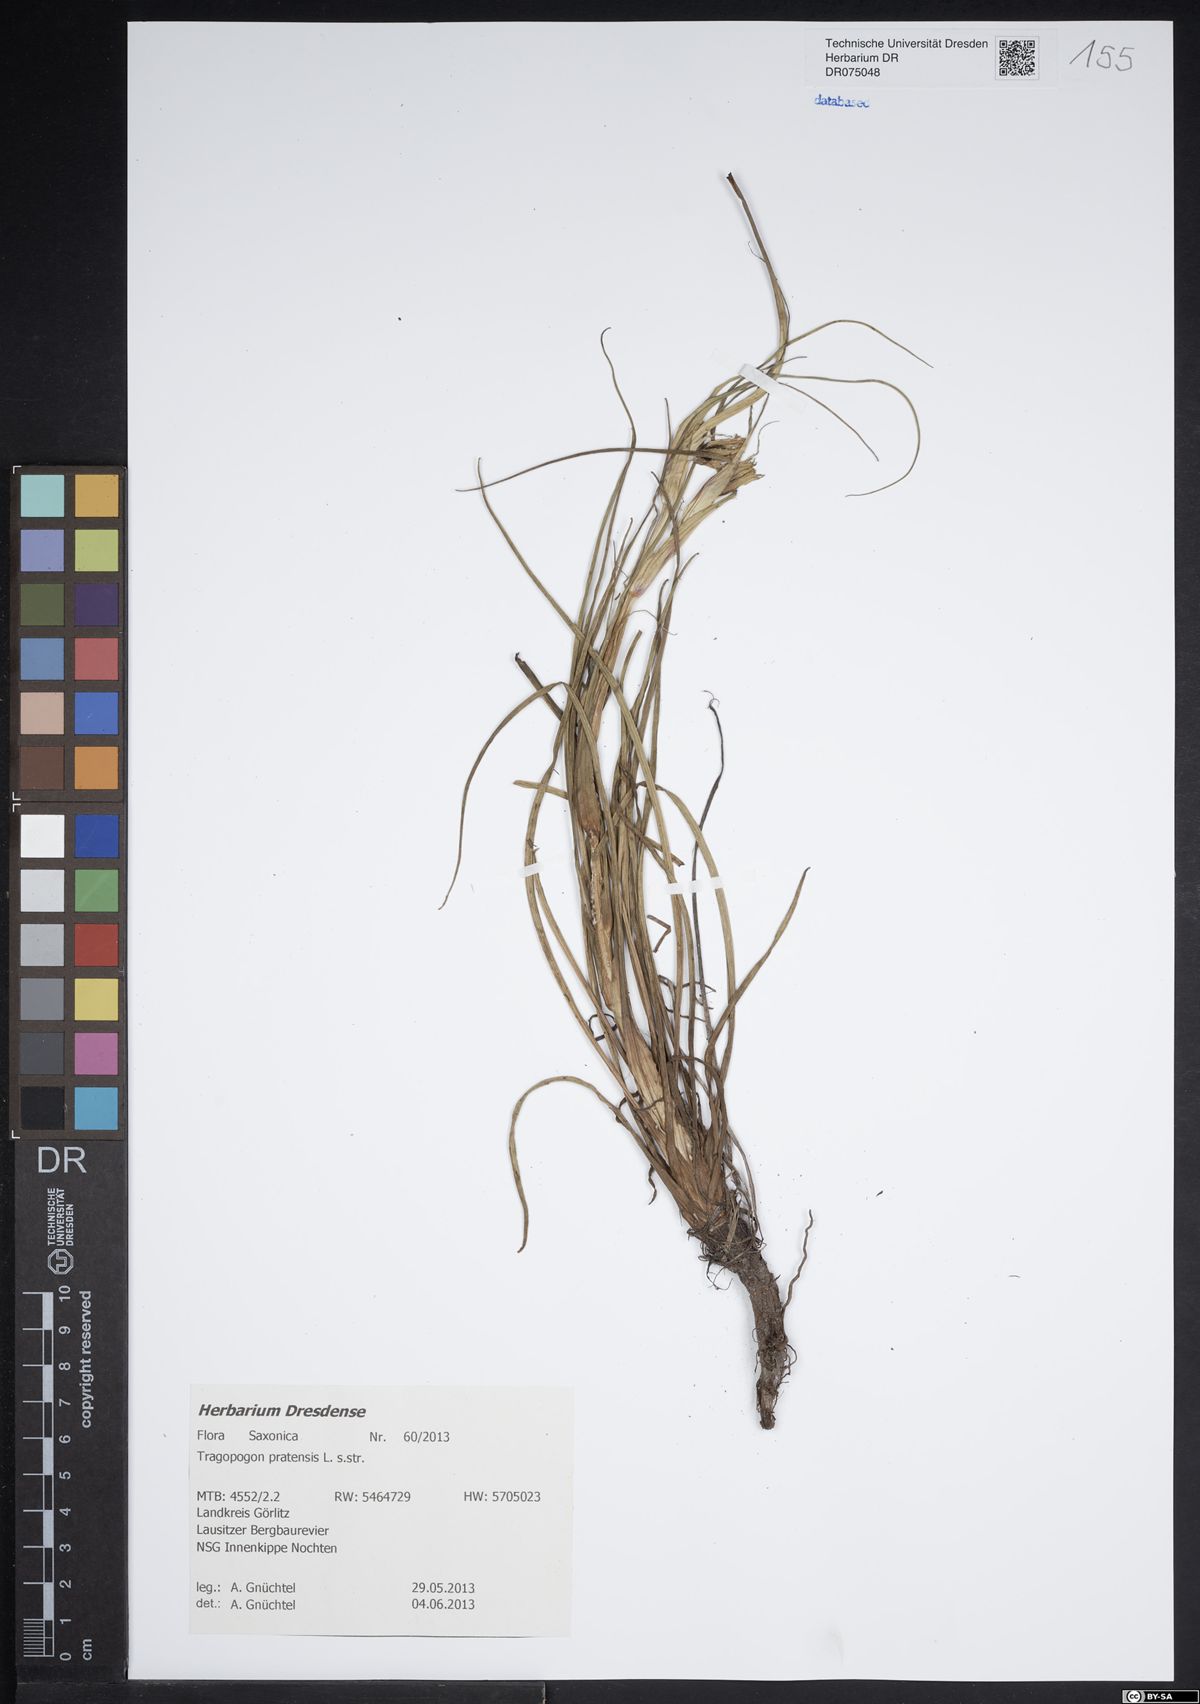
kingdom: Plantae
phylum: Tracheophyta
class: Magnoliopsida
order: Asterales
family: Asteraceae
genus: Tragopogon
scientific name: Tragopogon pratensis
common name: Goat's-beard
